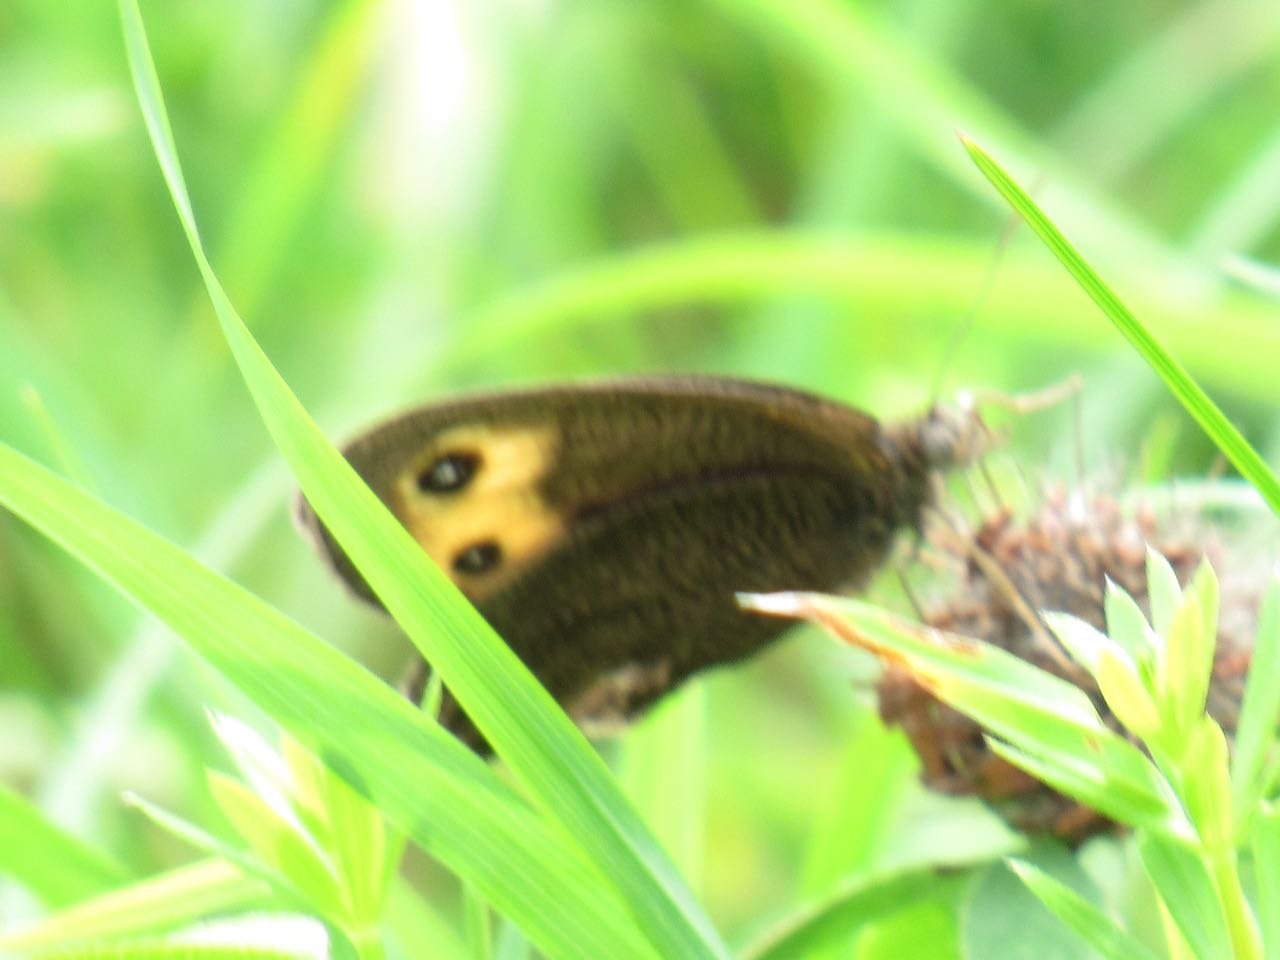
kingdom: Animalia
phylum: Arthropoda
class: Insecta
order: Lepidoptera
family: Nymphalidae
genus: Cercyonis
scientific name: Cercyonis pegala
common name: Common Wood-Nymph
